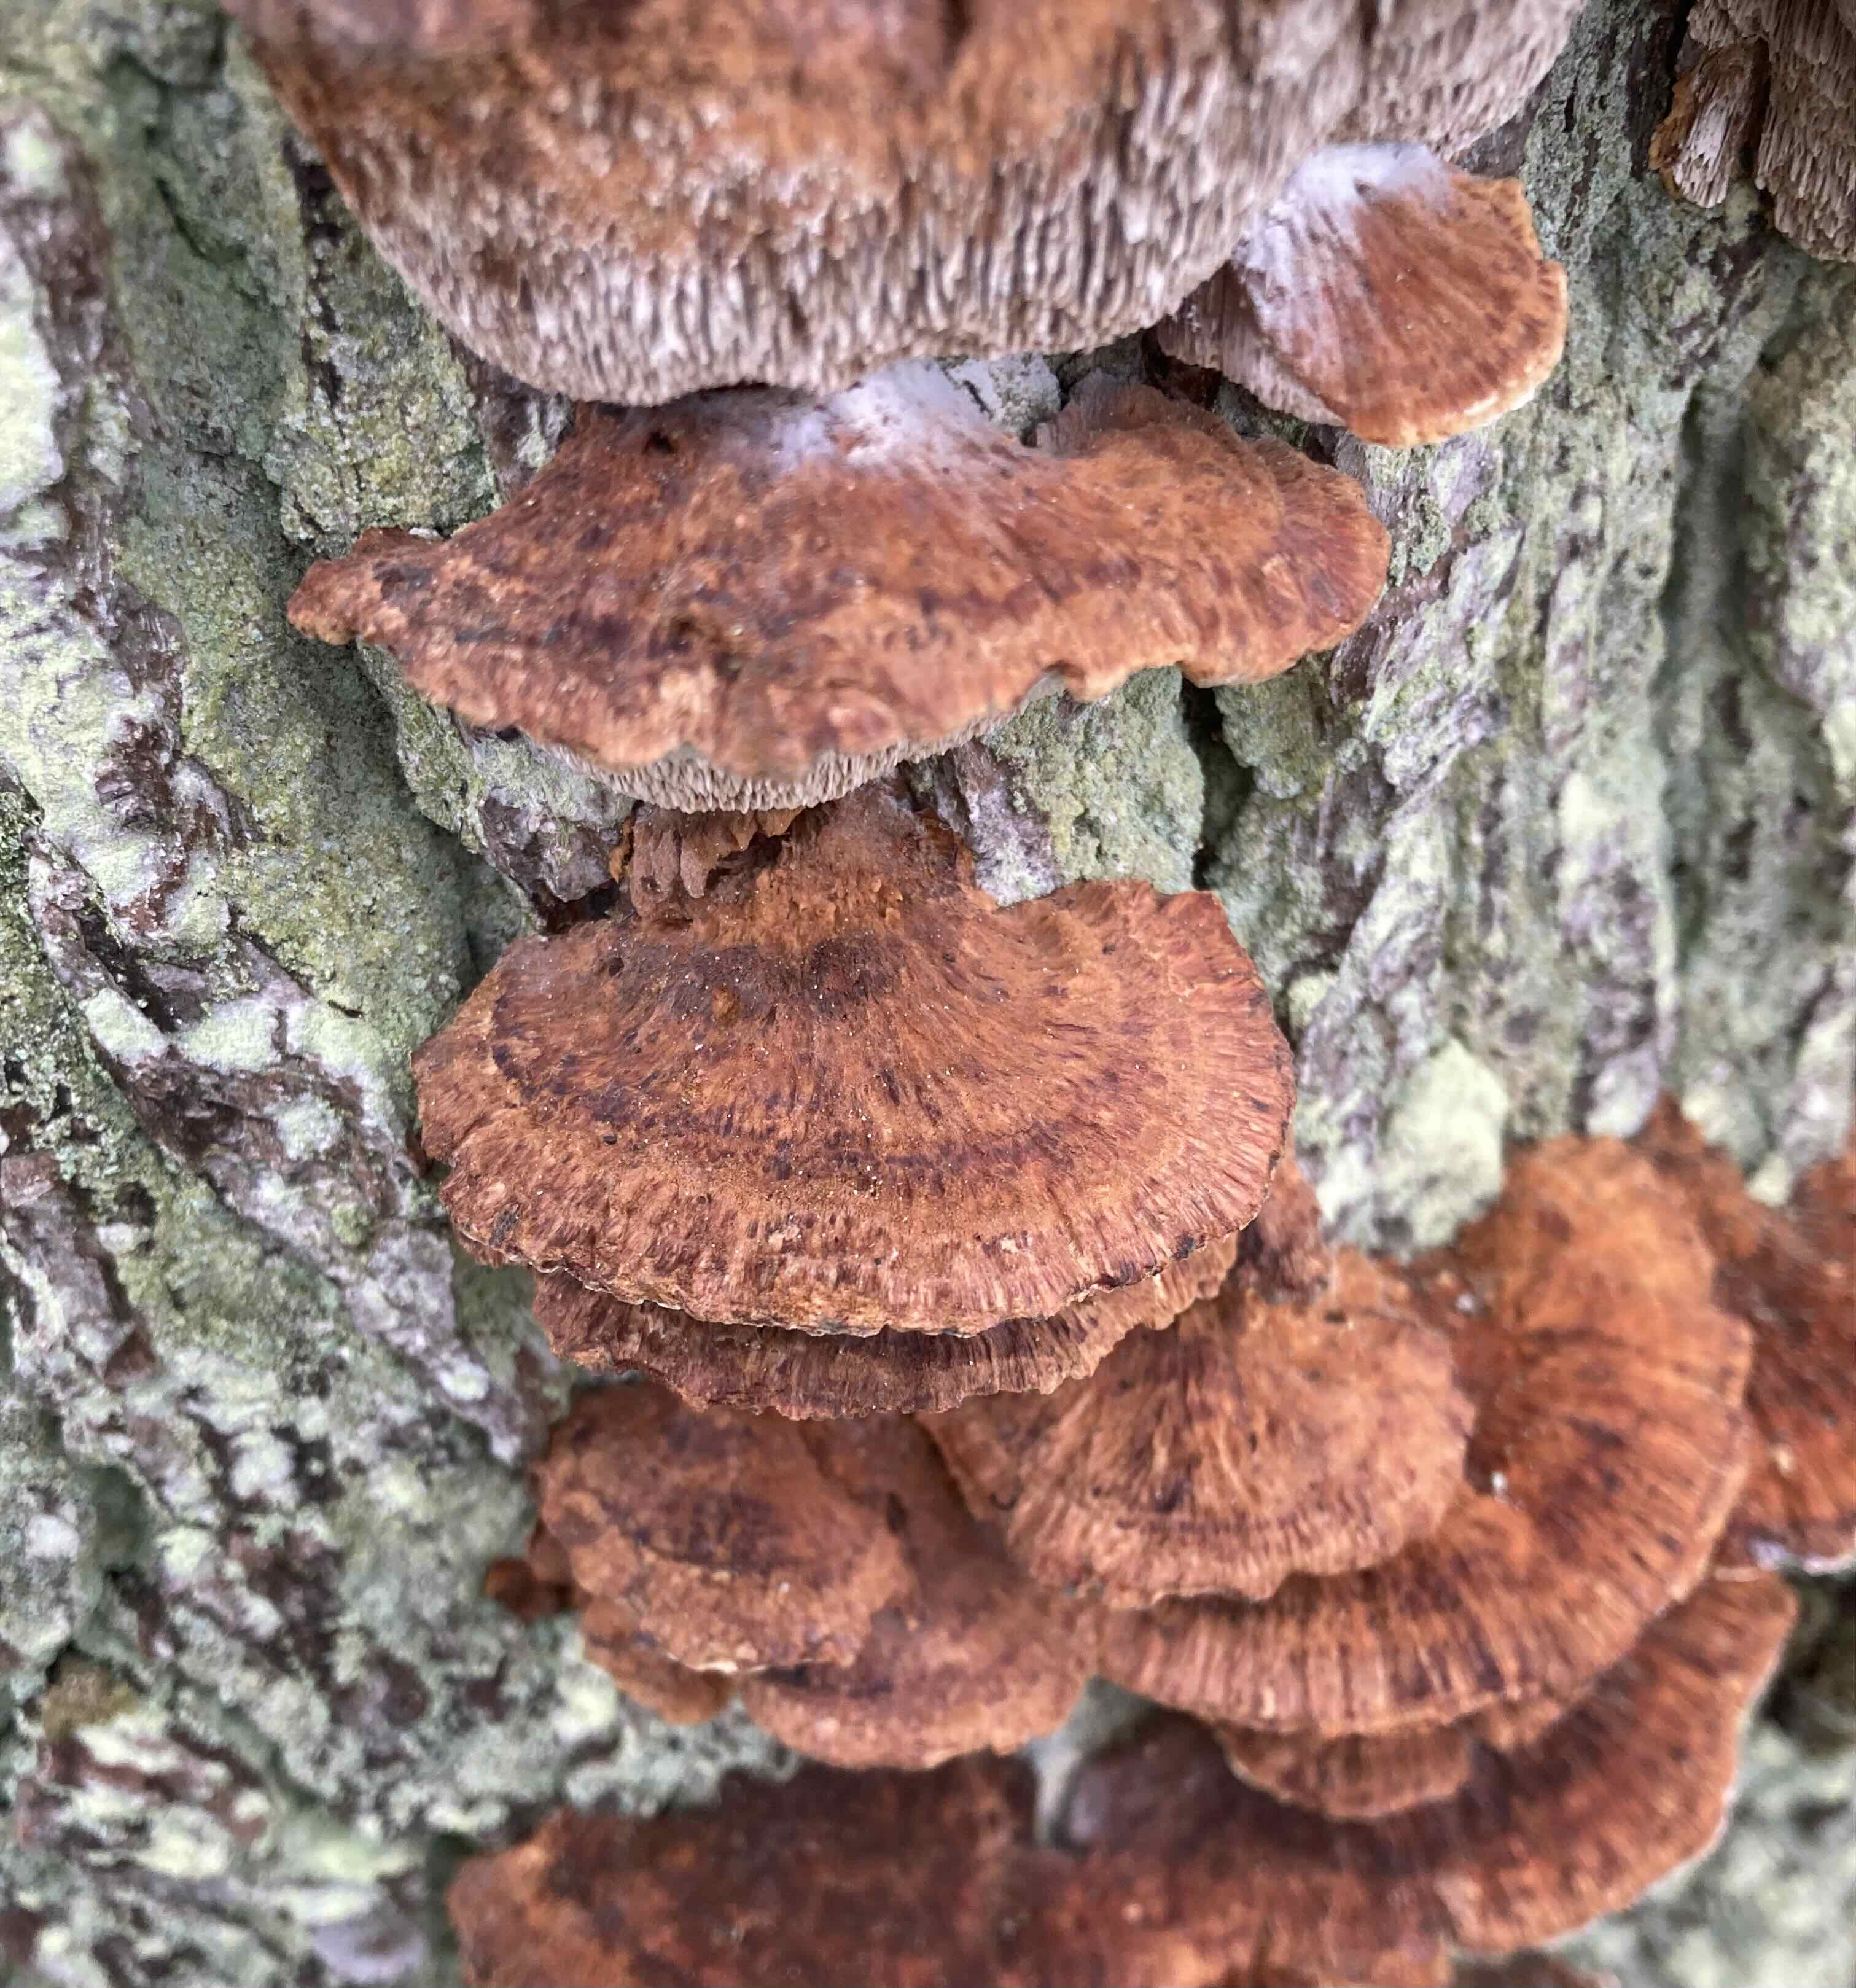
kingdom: Fungi
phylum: Basidiomycota
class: Agaricomycetes
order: Hymenochaetales
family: Hymenochaetaceae
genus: Xanthoporia
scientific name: Xanthoporia radiata
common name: elle-spejlporesvamp
